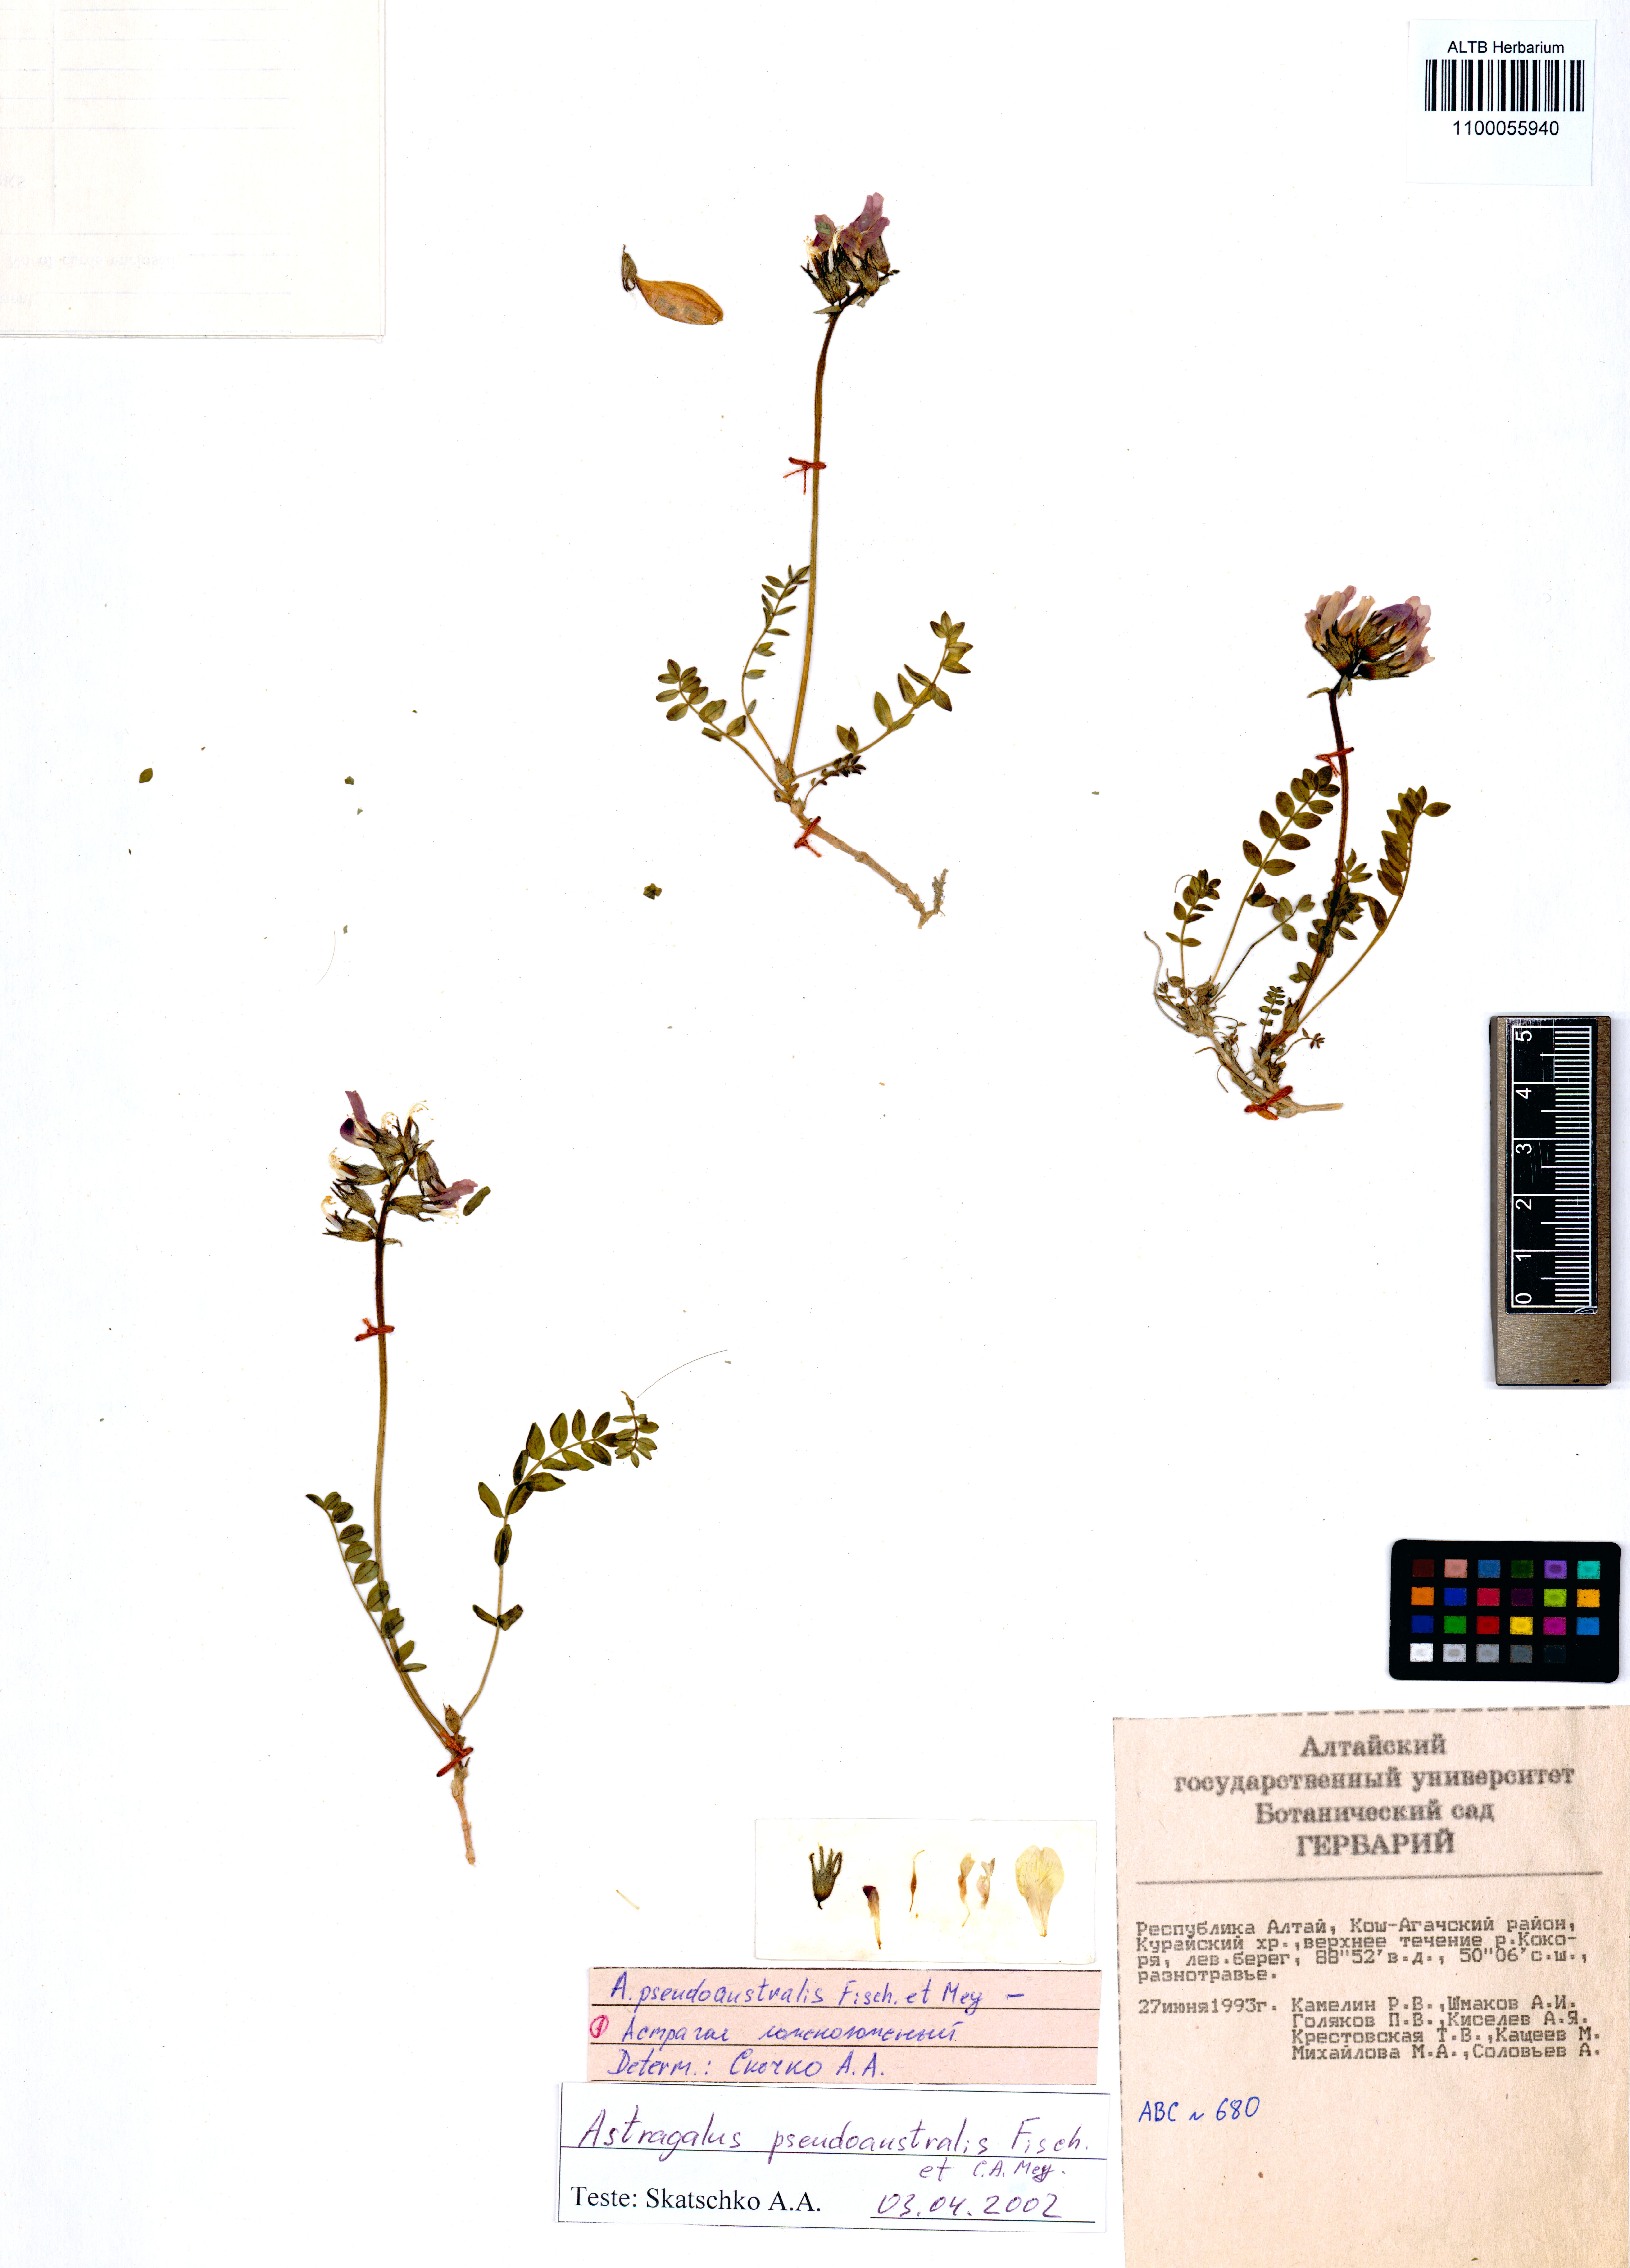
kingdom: Plantae
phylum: Tracheophyta
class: Magnoliopsida
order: Fabales
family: Fabaceae
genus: Astragalus
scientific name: Astragalus pseudaustralis
